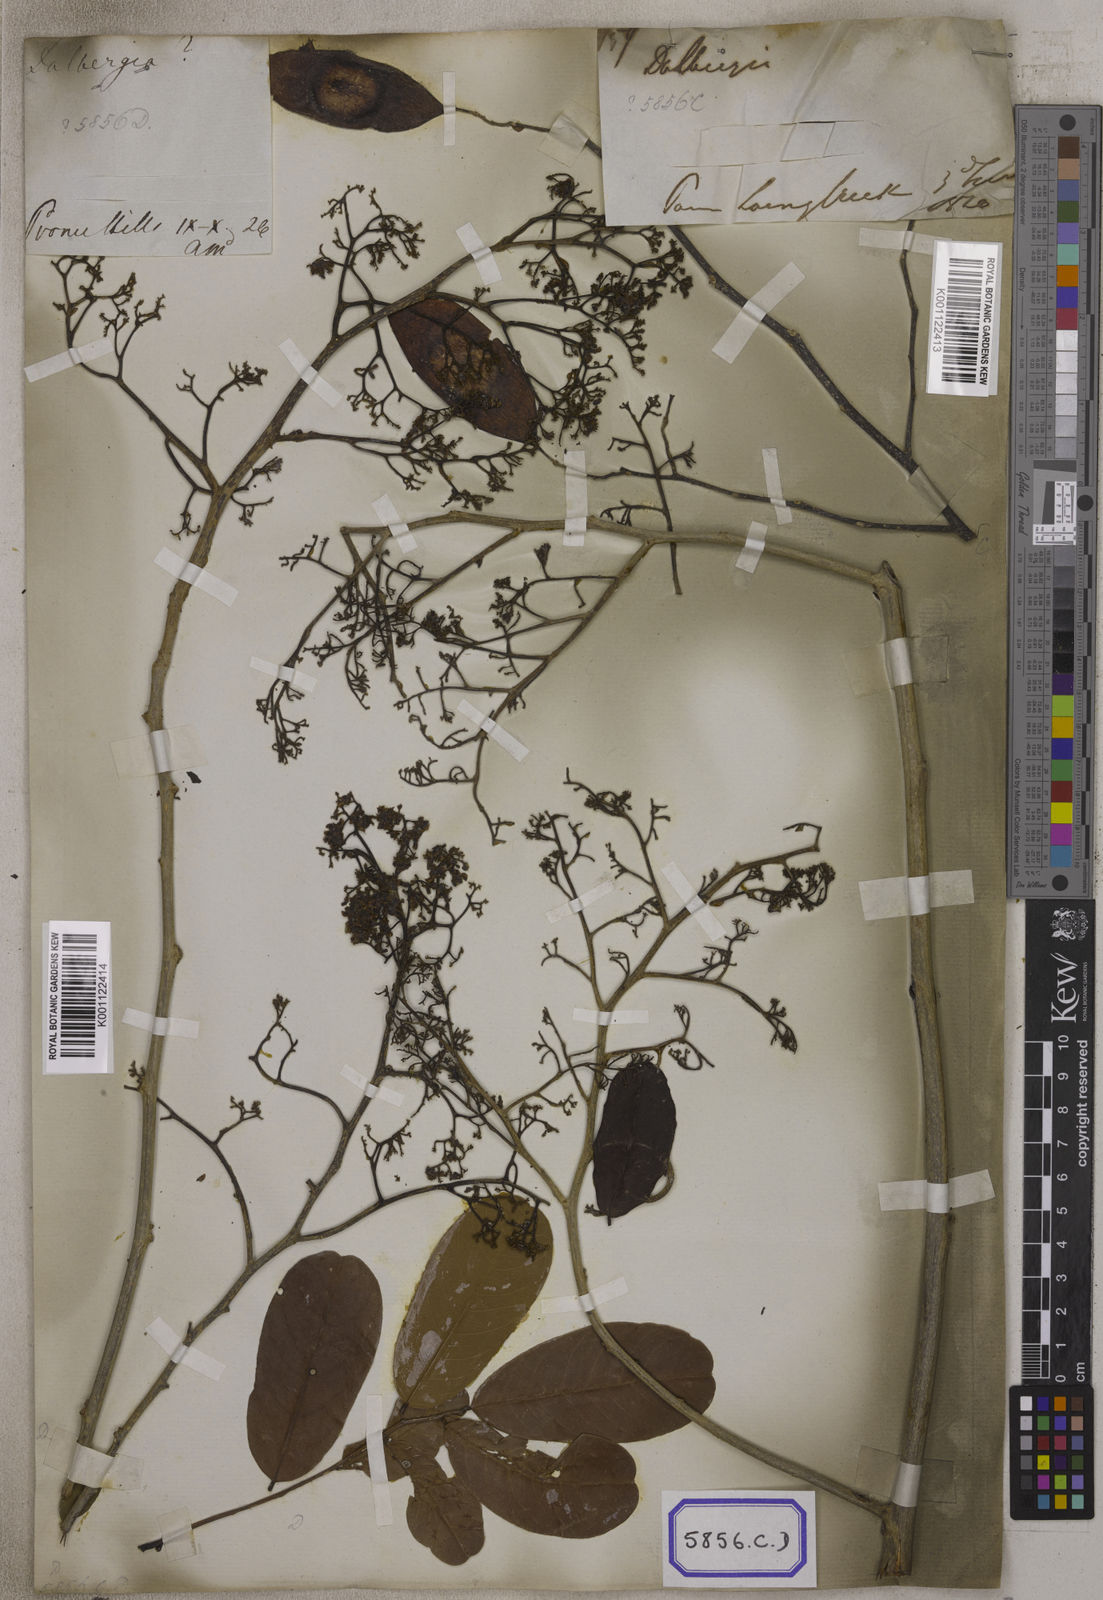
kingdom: Plantae
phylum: Tracheophyta
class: Magnoliopsida
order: Fabales
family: Fabaceae
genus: Dalbergia
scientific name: Dalbergia
